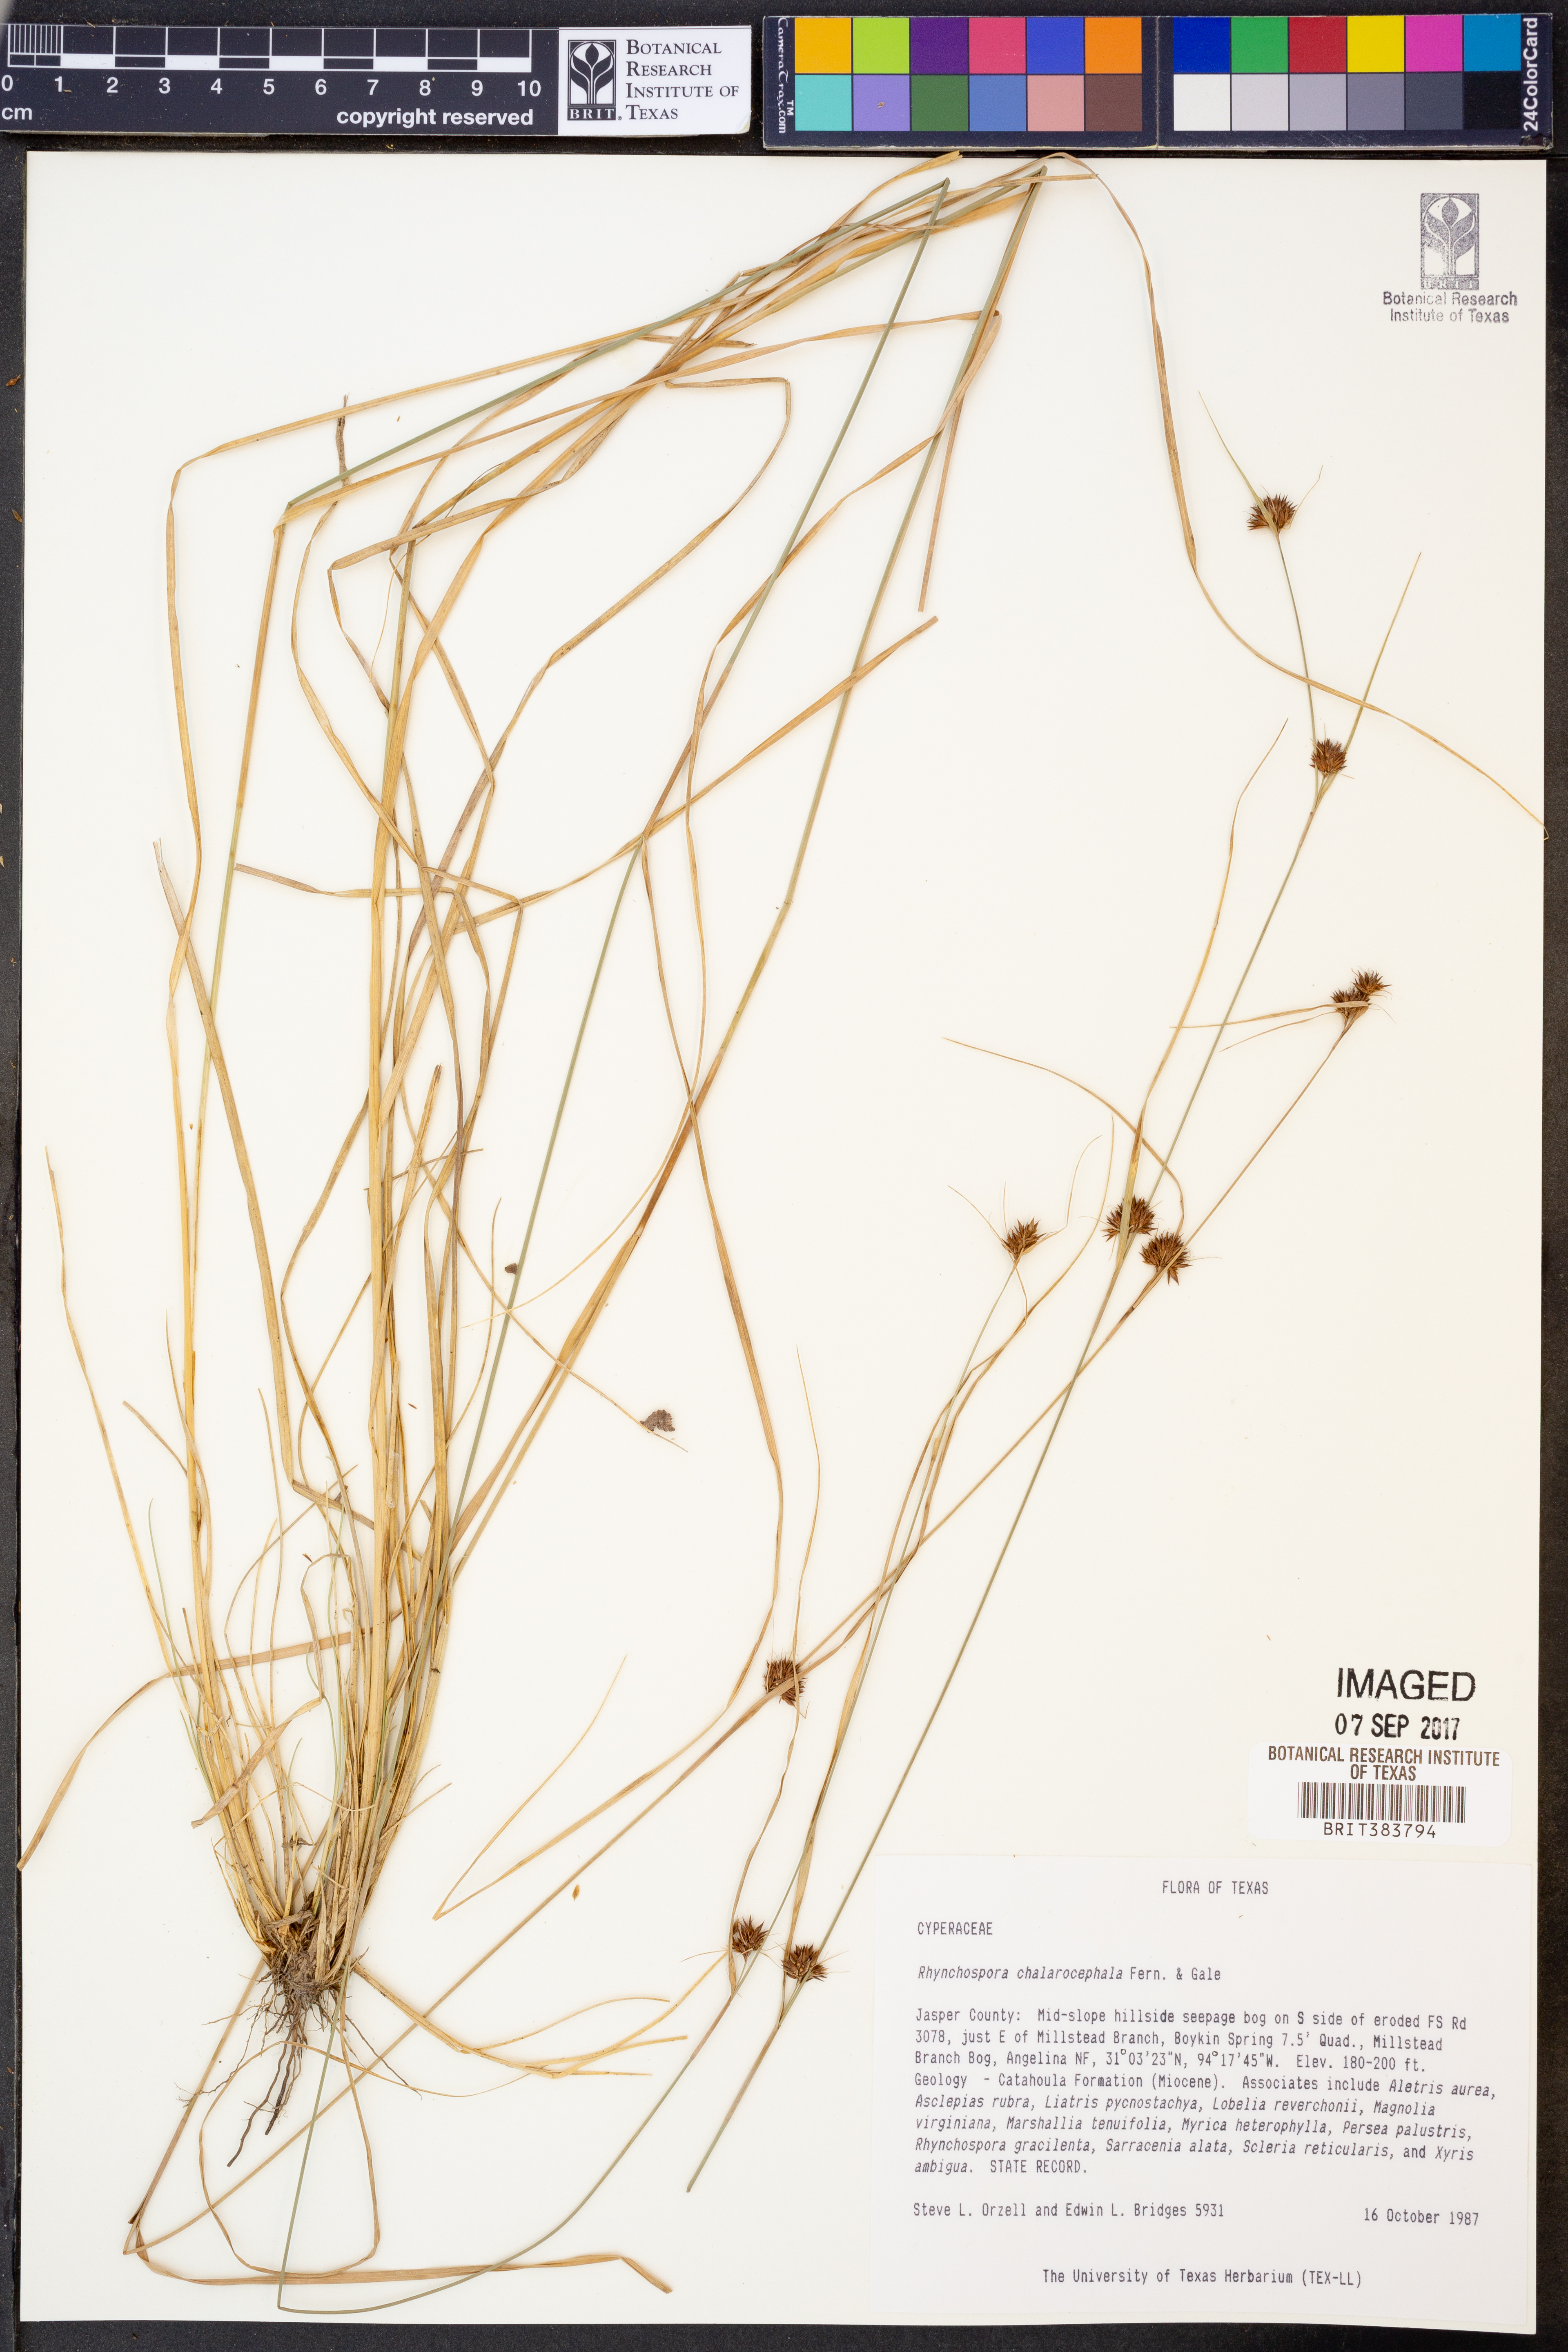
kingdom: Plantae
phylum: Tracheophyta
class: Liliopsida
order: Poales
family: Cyperaceae
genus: Rhynchospora
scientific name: Rhynchospora chalarocephala
